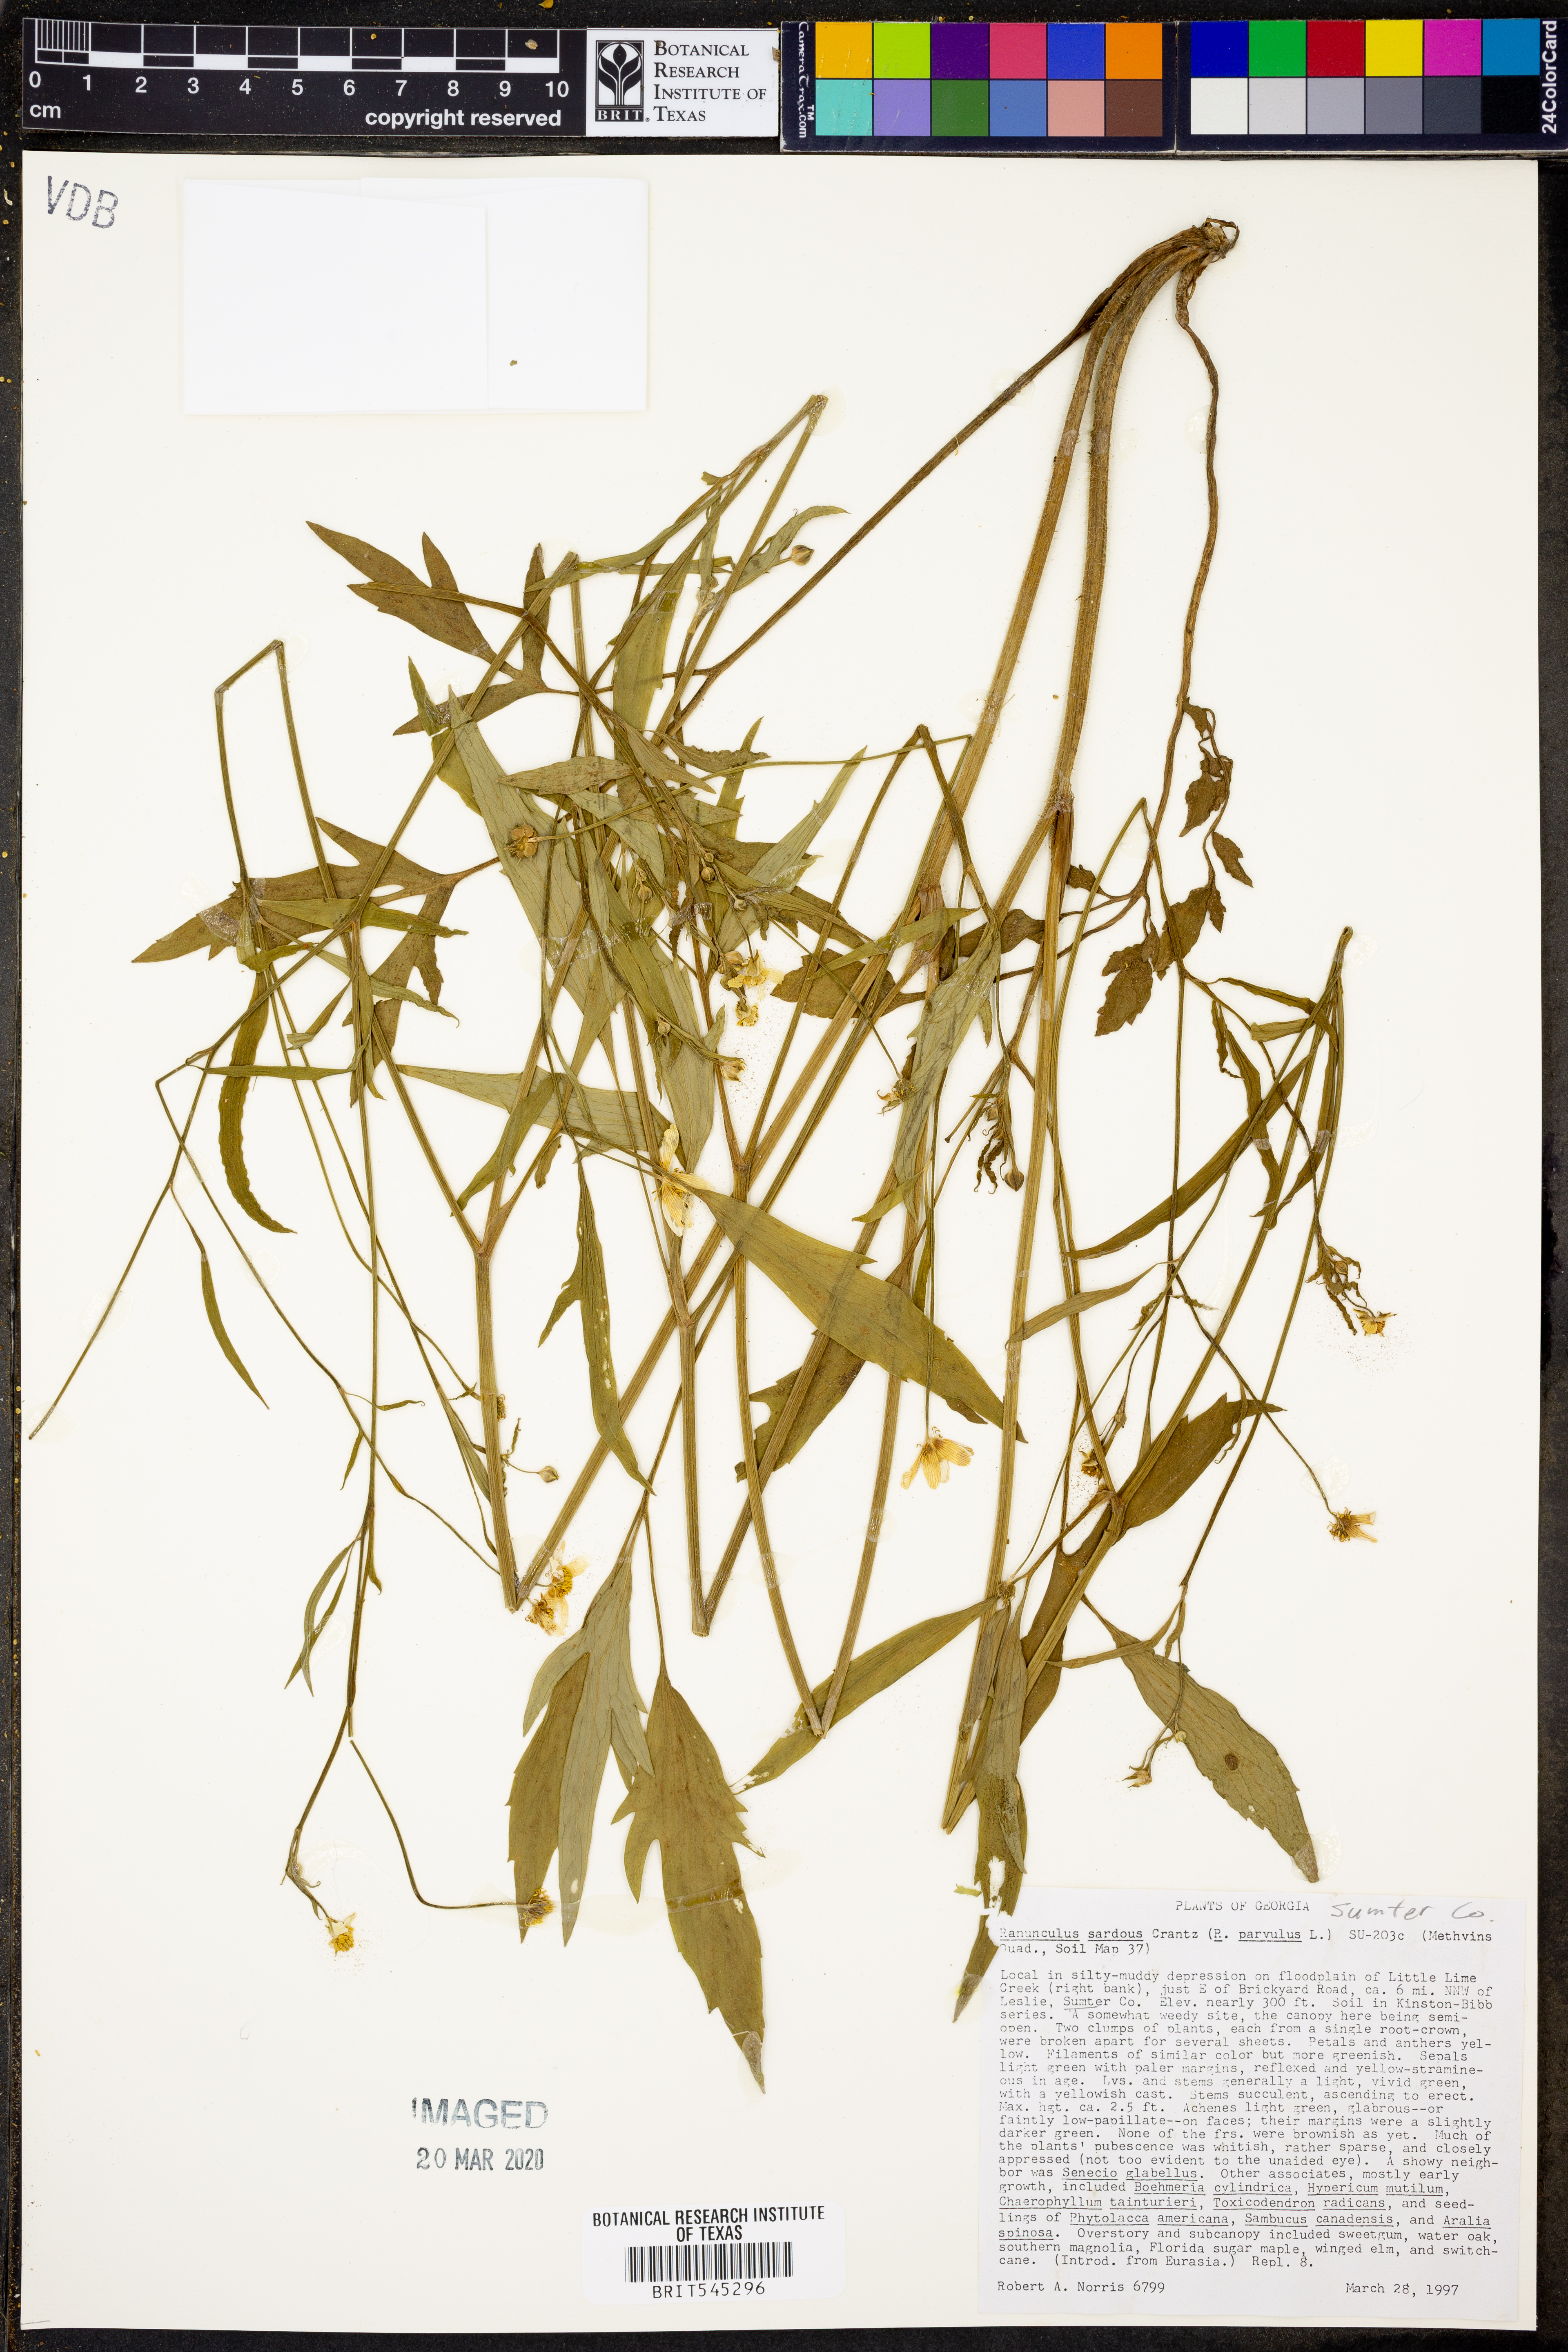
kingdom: Plantae
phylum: Tracheophyta
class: Magnoliopsida
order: Ranunculales
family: Ranunculaceae
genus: Ranunculus
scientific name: Ranunculus sardous
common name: Hairy buttercup
